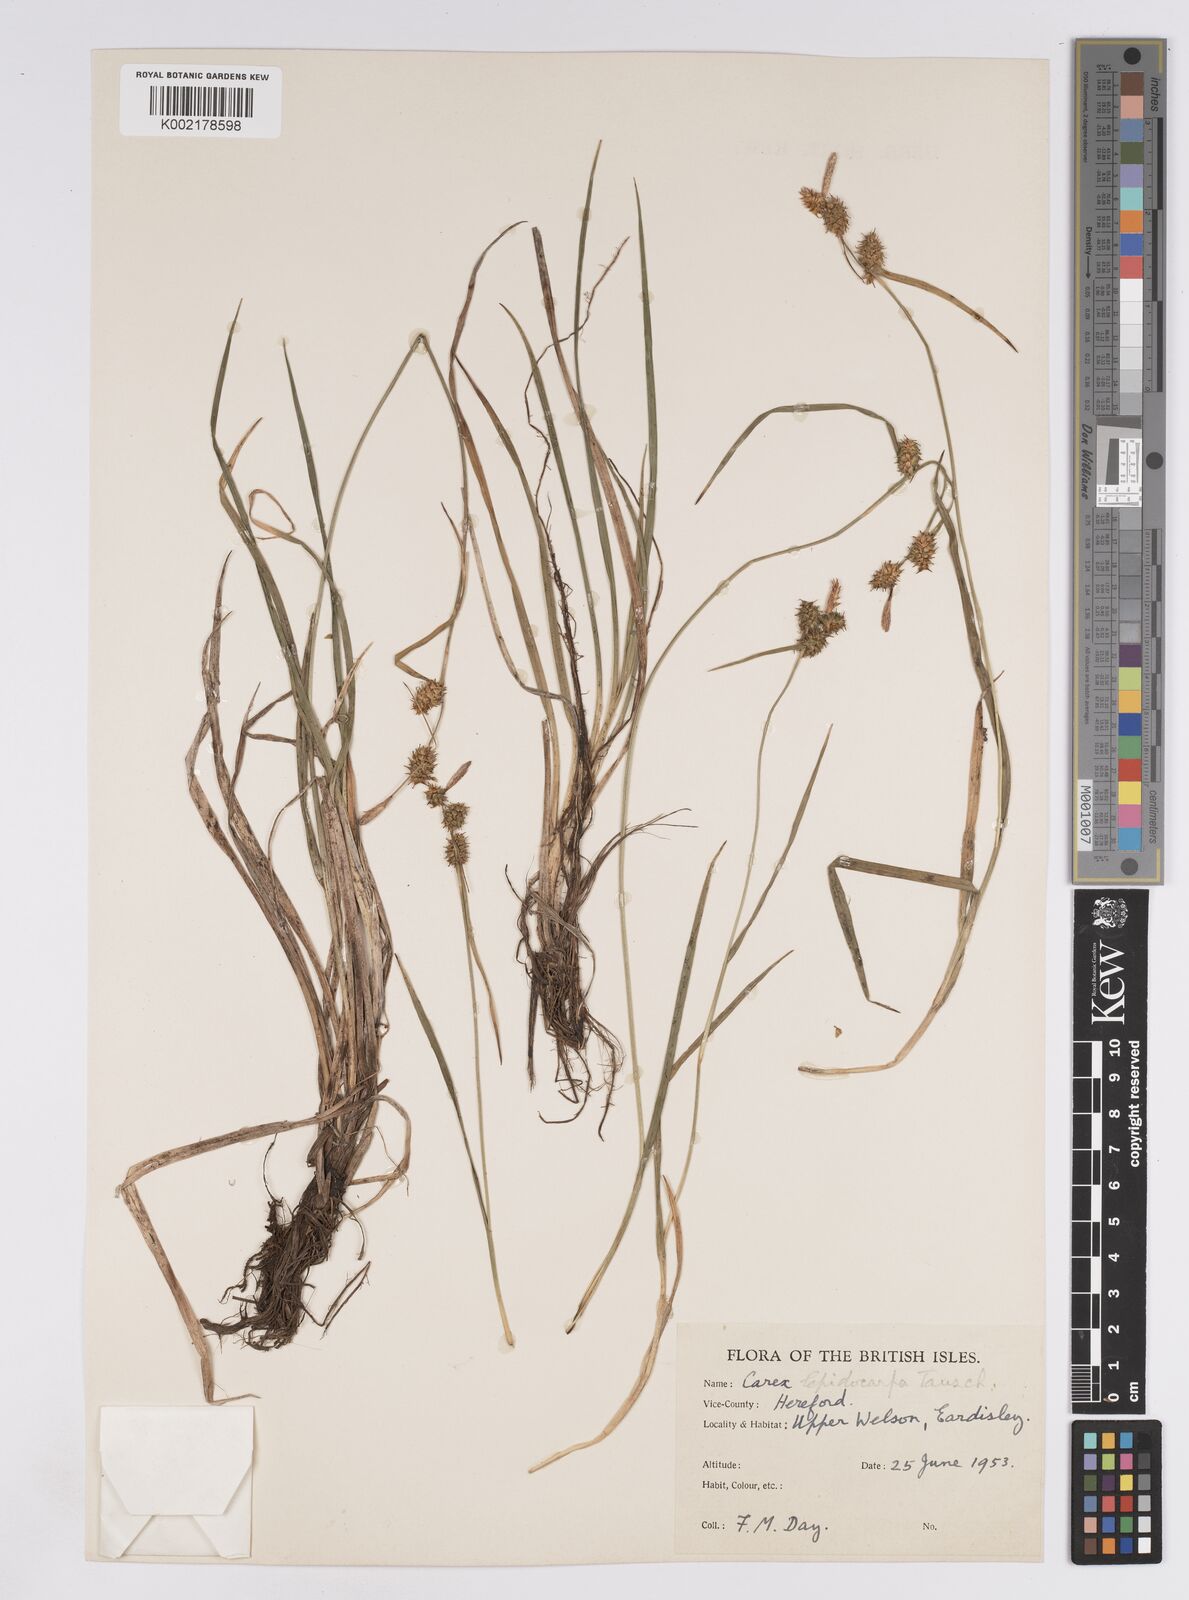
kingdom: Plantae
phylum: Tracheophyta
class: Liliopsida
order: Poales
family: Cyperaceae
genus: Carex
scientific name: Carex lepidocarpa
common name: Long-stalked yellow-sedge
